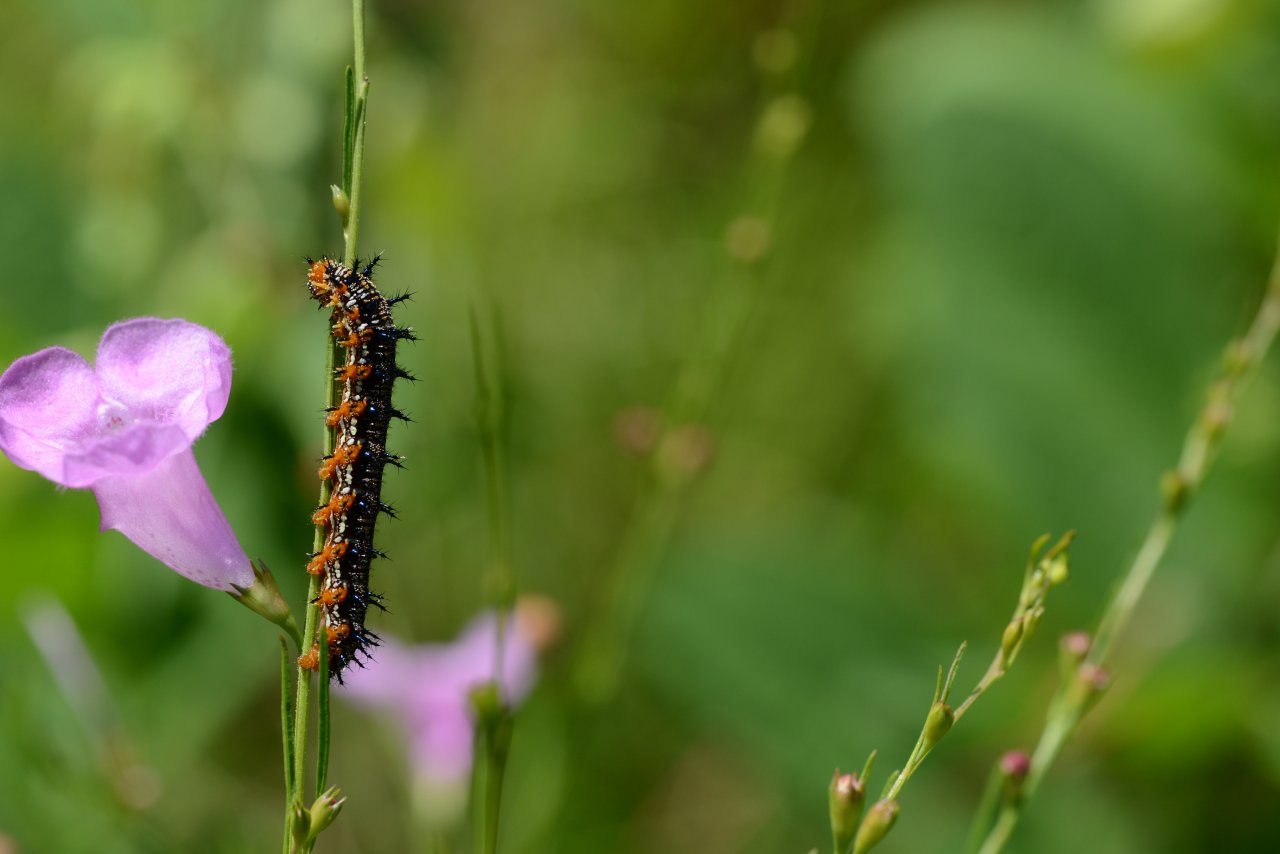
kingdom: Animalia
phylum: Arthropoda
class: Insecta
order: Lepidoptera
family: Nymphalidae
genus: Junonia
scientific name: Junonia coenia
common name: Common Buckeye
